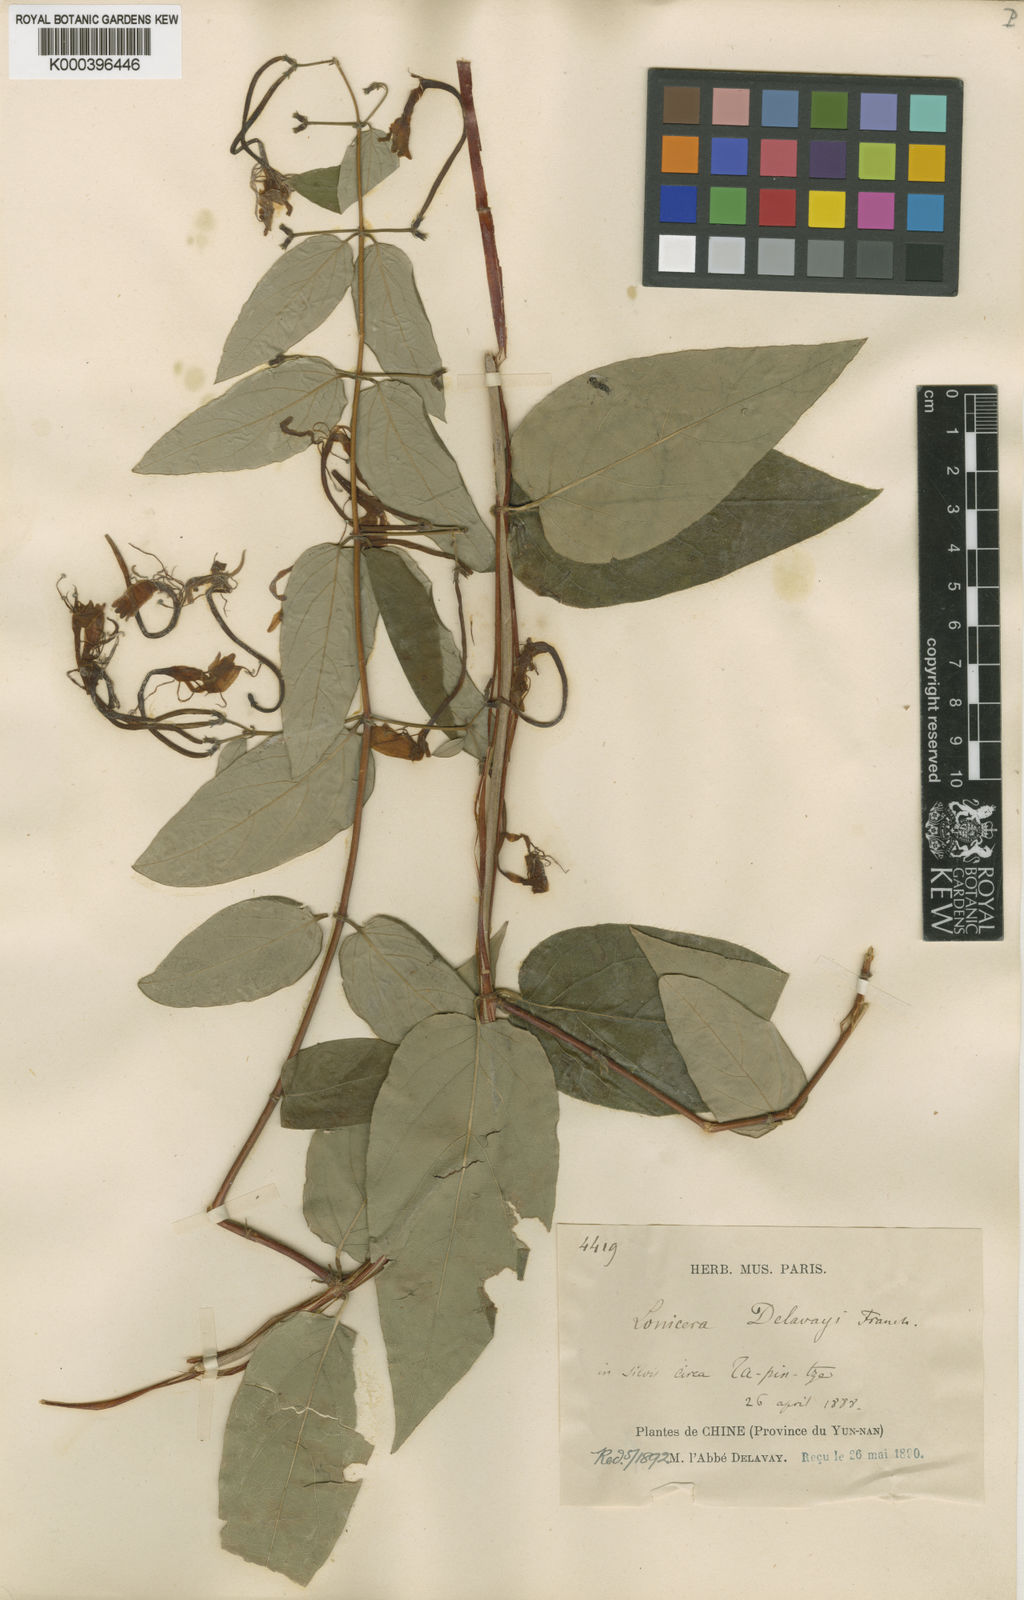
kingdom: Plantae
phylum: Tracheophyta
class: Magnoliopsida
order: Dipsacales
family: Caprifoliaceae
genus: Lonicera
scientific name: Lonicera similis
